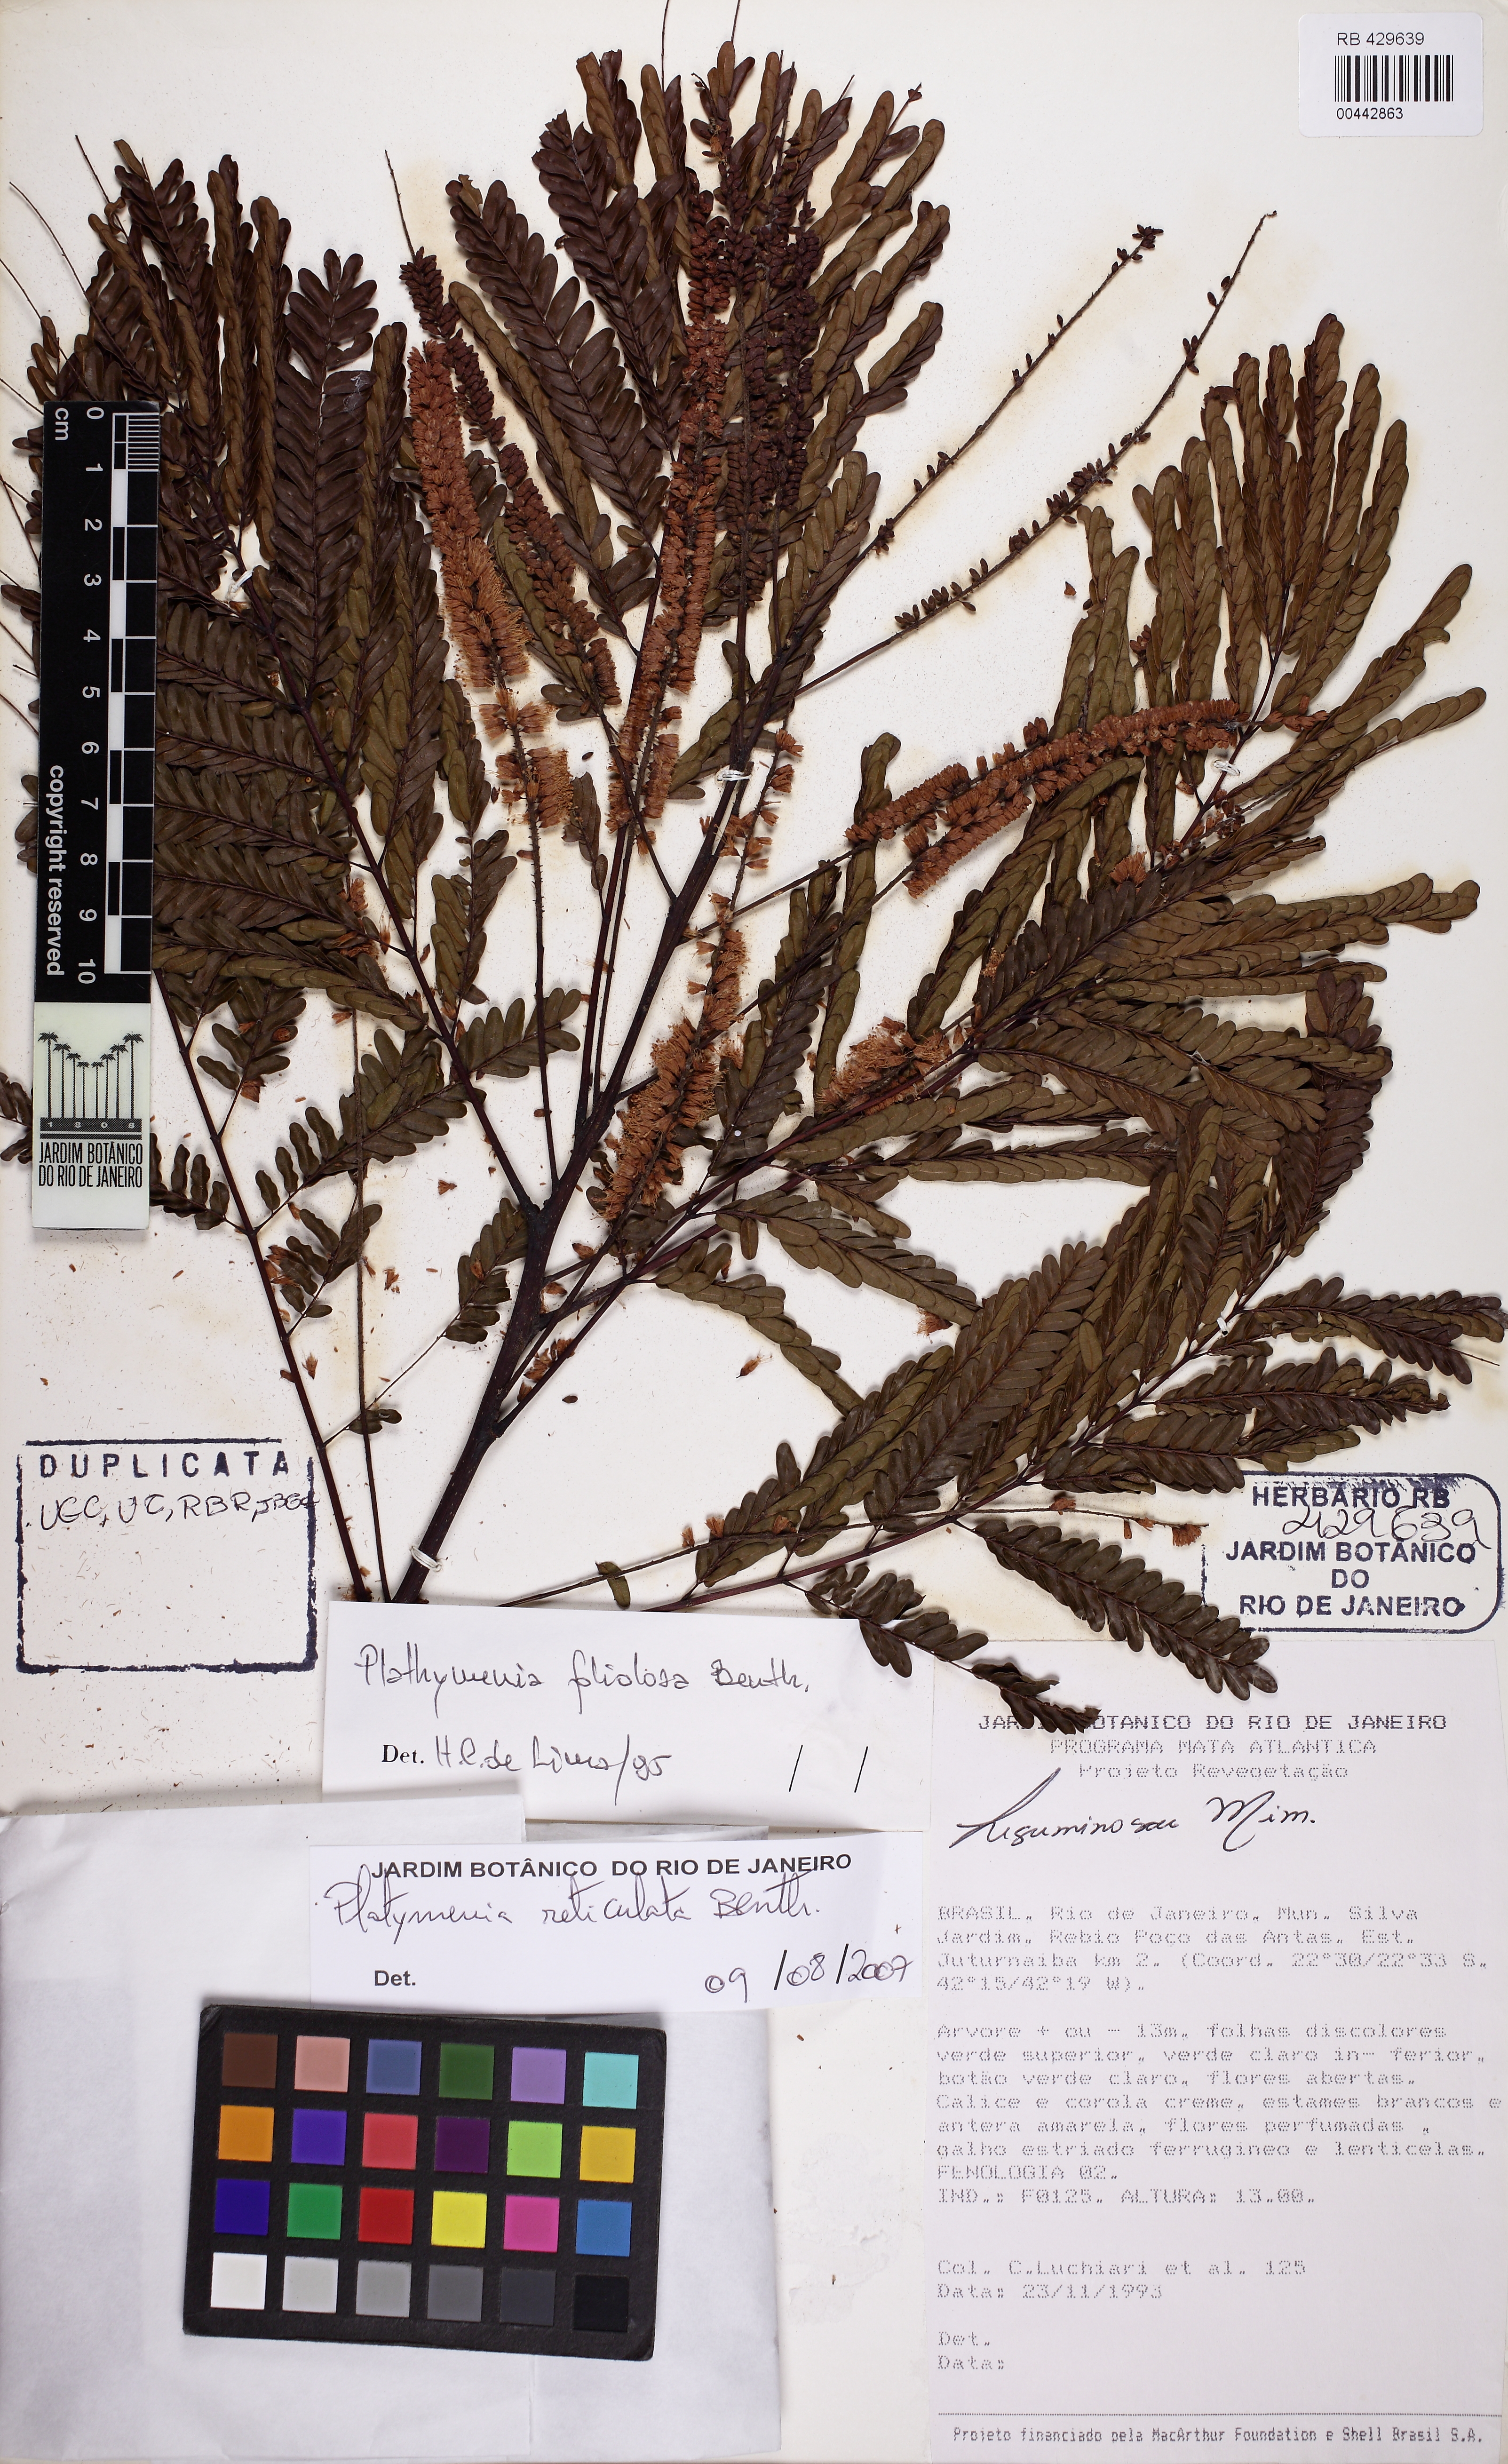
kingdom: Plantae
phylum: Tracheophyta
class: Magnoliopsida
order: Fabales
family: Fabaceae
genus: Plathymenia
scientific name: Plathymenia reticulata
